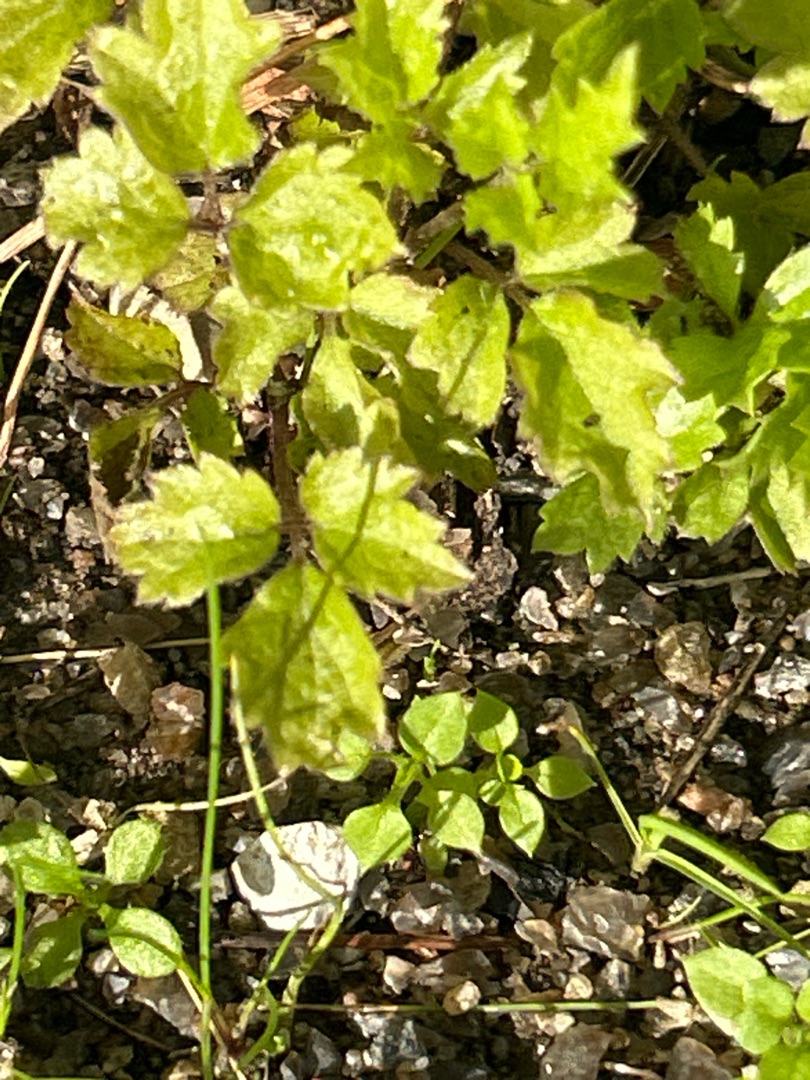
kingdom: Plantae
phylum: Tracheophyta
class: Magnoliopsida
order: Ranunculales
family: Ranunculaceae
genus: Clematis
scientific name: Clematis vitalba
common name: Skovranke
